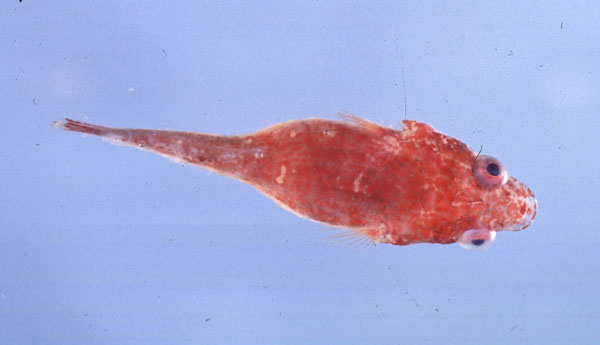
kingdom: Animalia
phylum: Chordata
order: Gobiesociformes
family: Gobiesocidae
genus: Apletodon
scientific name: Apletodon pellegrini
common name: Chubby clingfish
